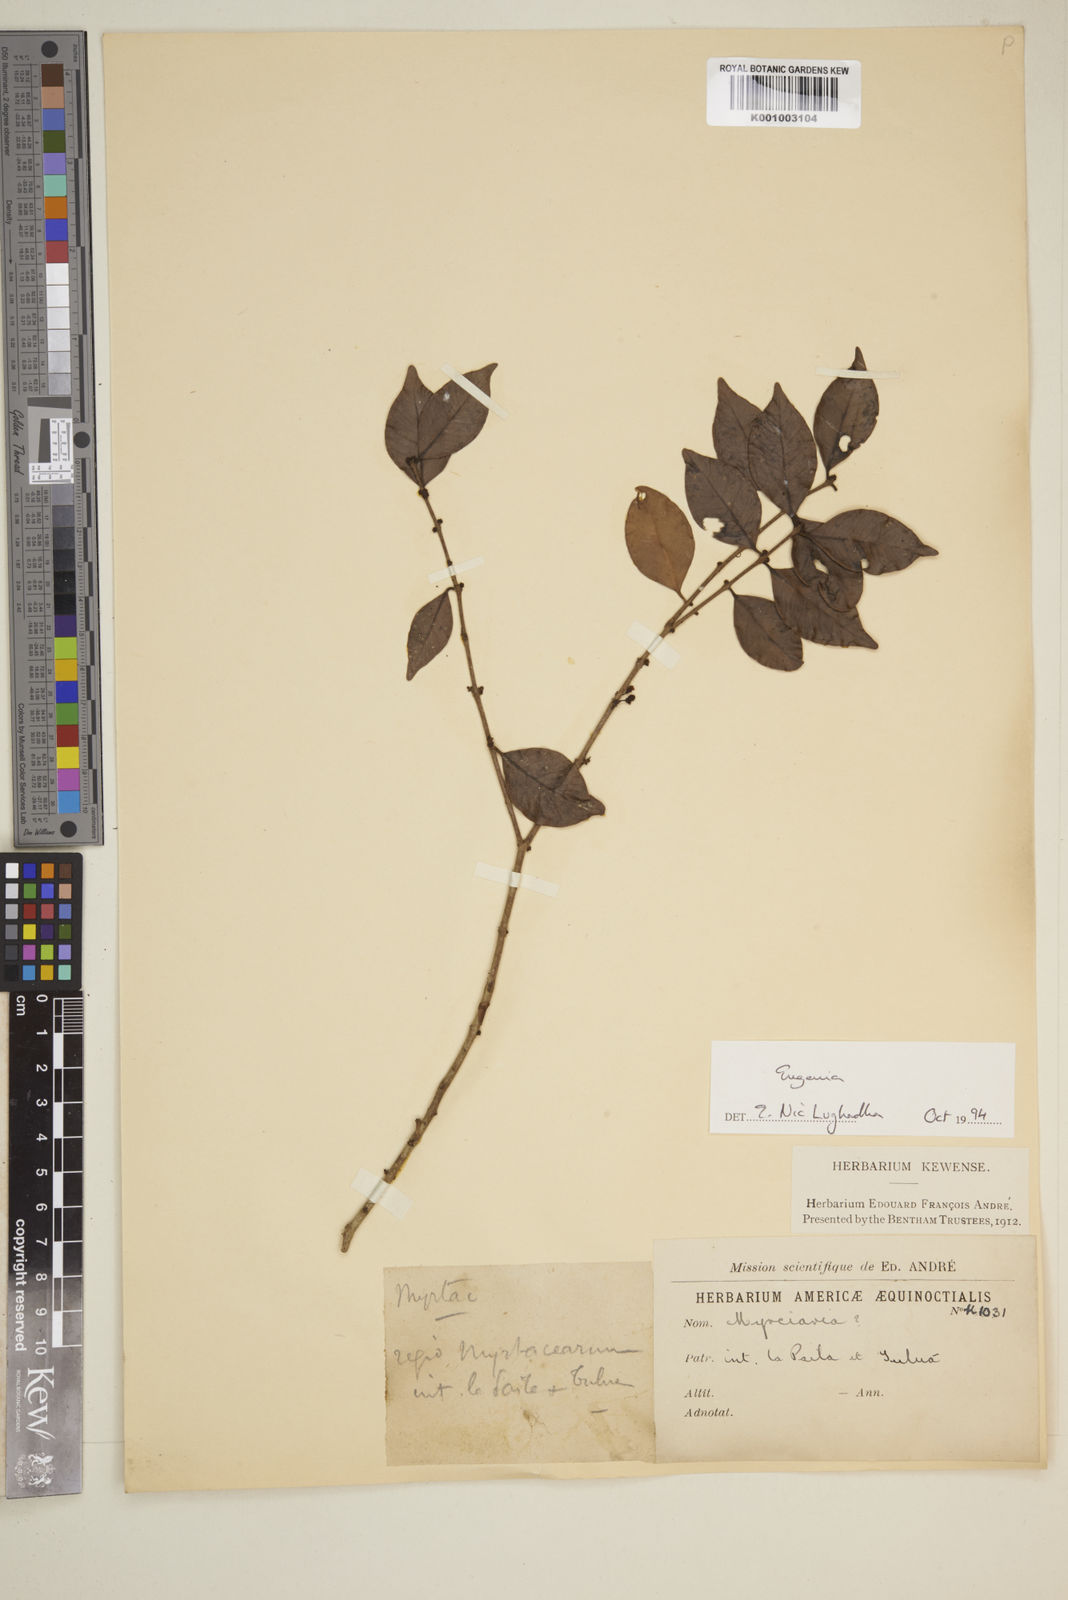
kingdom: Plantae
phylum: Tracheophyta
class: Magnoliopsida
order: Myrtales
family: Myrtaceae
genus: Eugenia
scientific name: Eugenia
